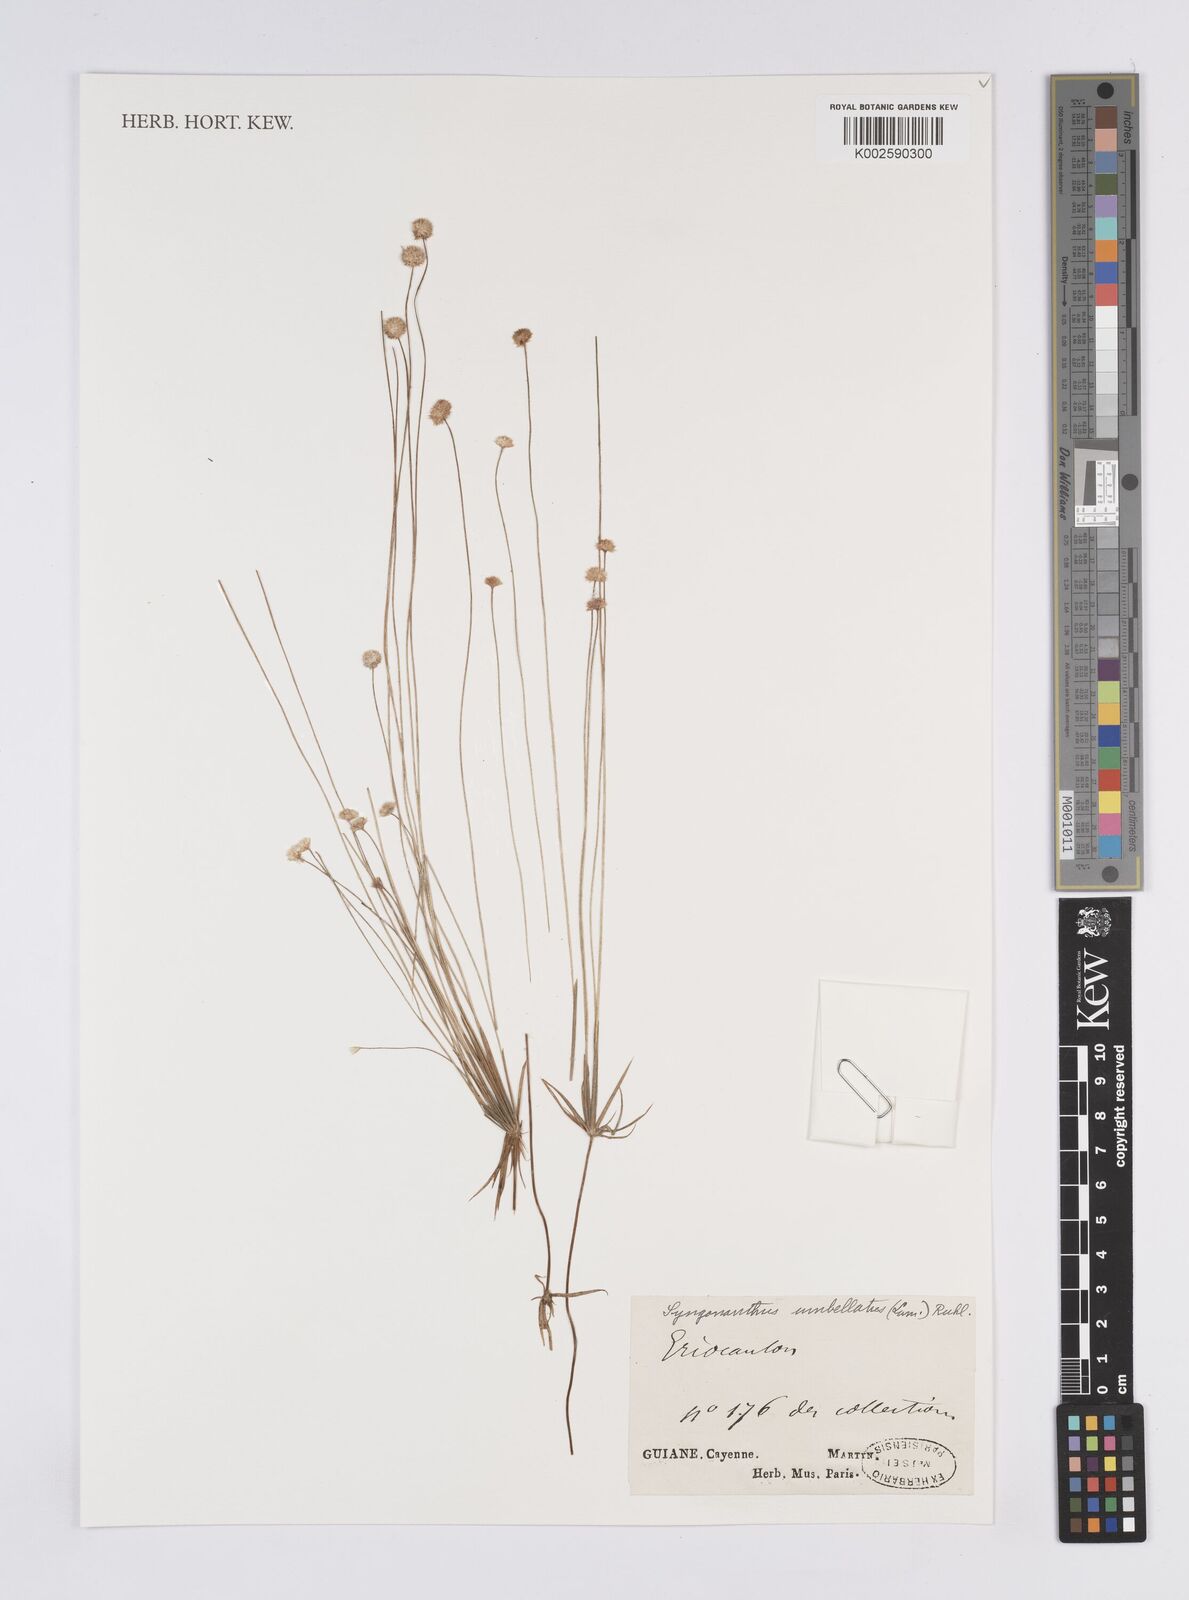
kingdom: Plantae
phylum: Tracheophyta
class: Liliopsida
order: Poales
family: Eriocaulaceae
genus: Syngonanthus
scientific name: Syngonanthus umbellatus
